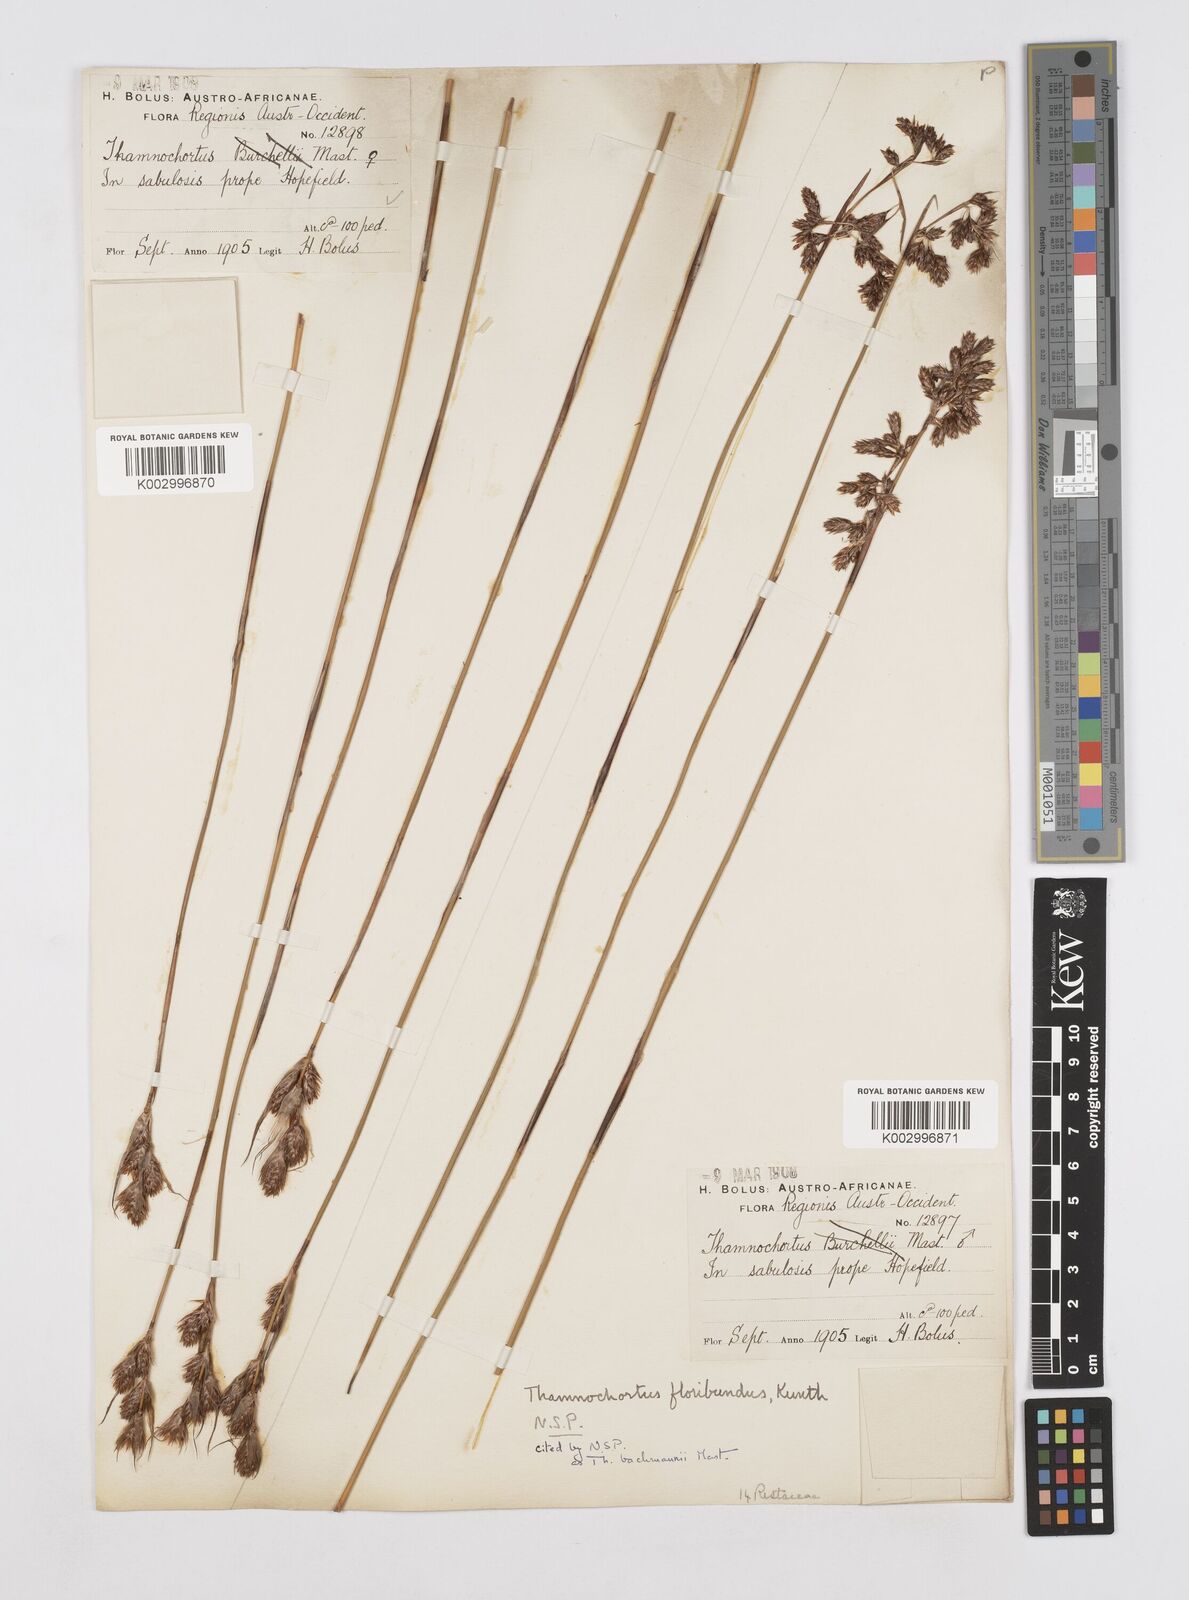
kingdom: Plantae
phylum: Tracheophyta
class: Liliopsida
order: Poales
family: Restionaceae
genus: Thamnochortus
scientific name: Thamnochortus bachmannii
